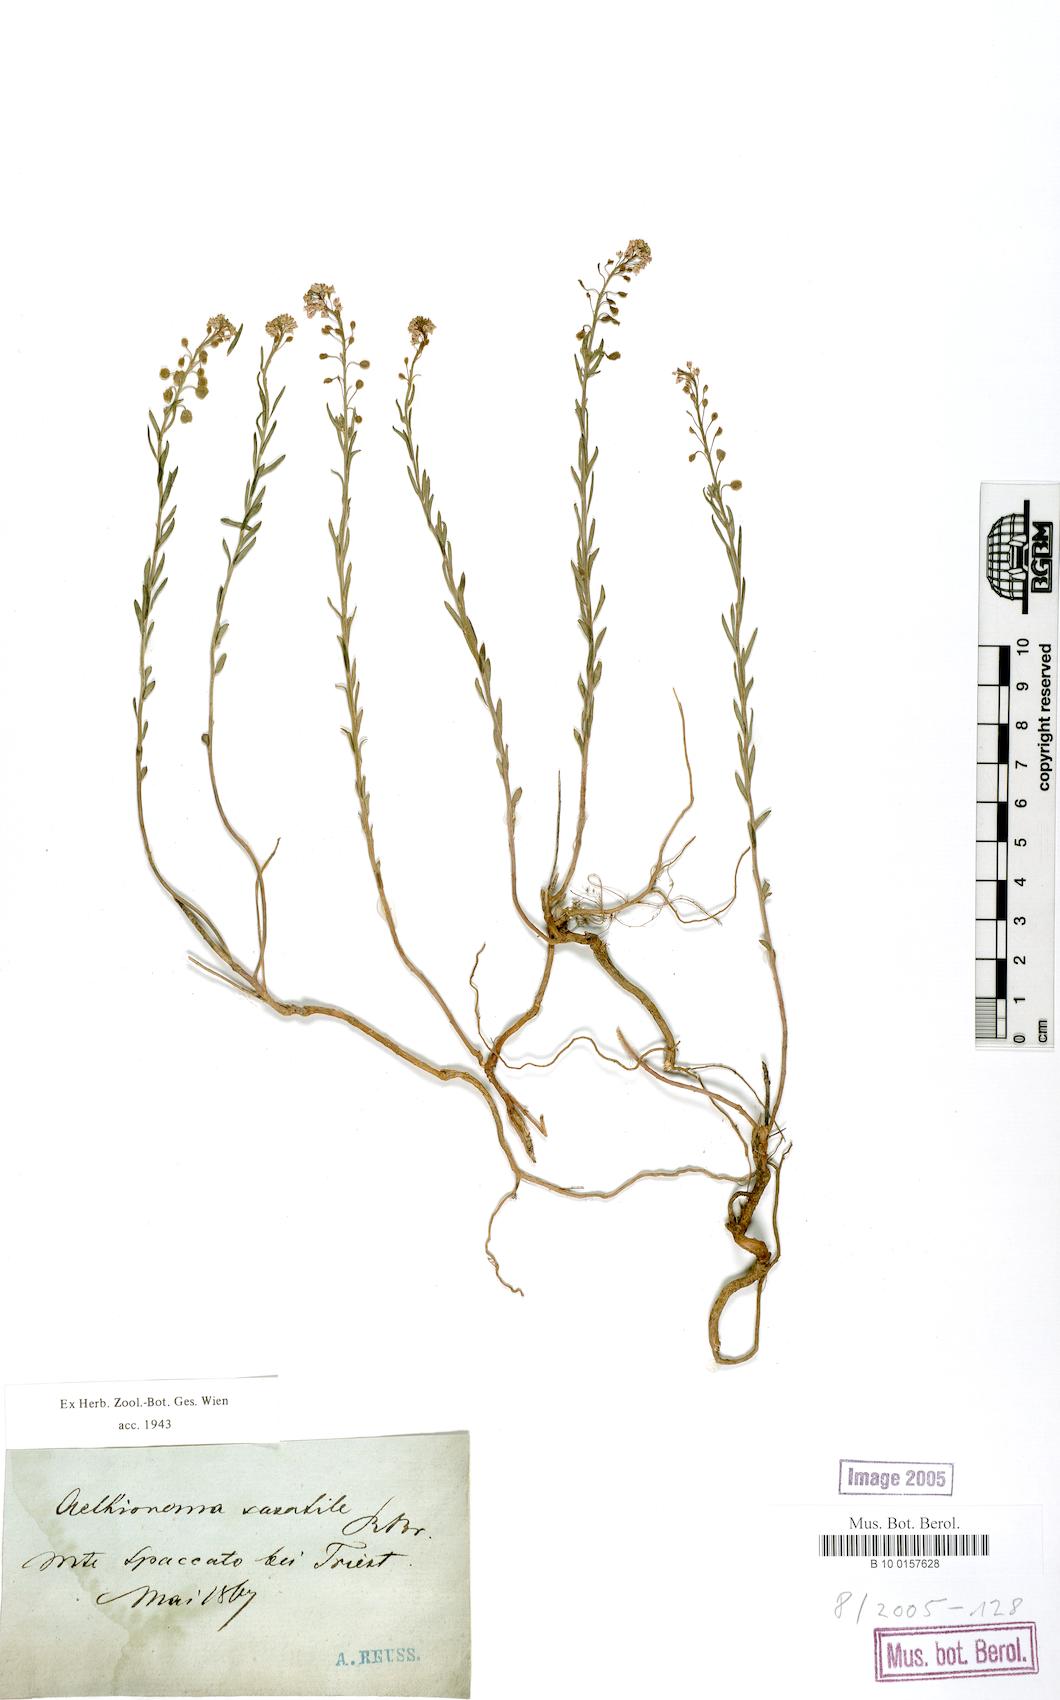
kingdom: Plantae
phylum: Tracheophyta
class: Magnoliopsida
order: Brassicales
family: Brassicaceae
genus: Aethionema
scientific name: Aethionema saxatile
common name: Burnt candytuft
